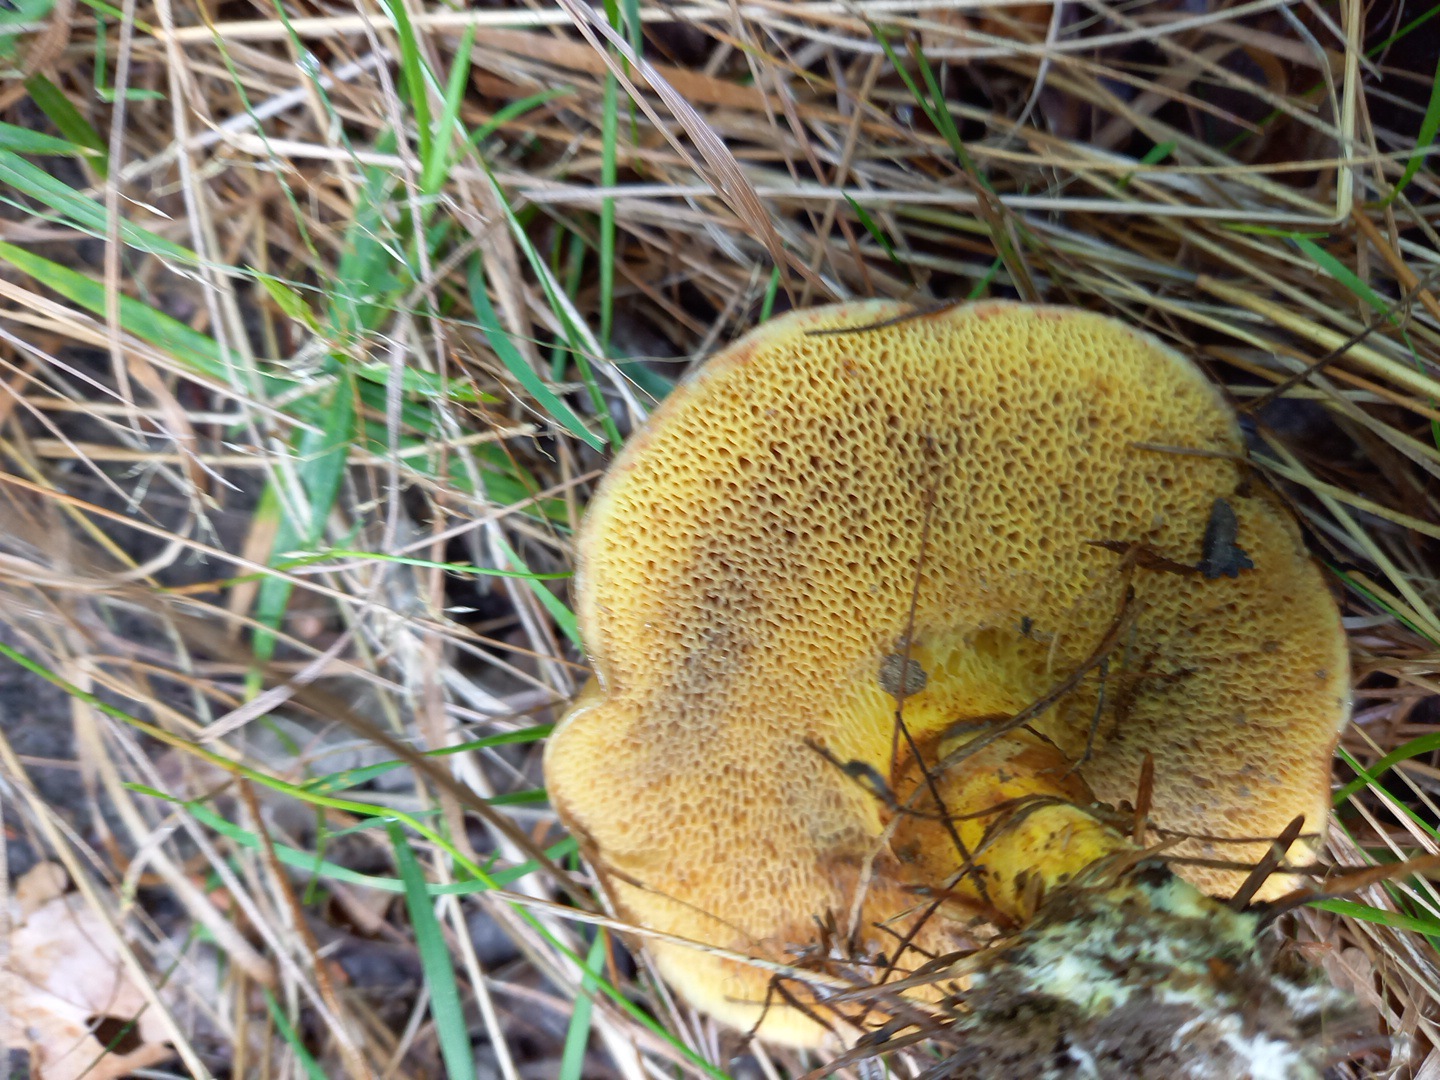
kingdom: Fungi
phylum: Basidiomycota
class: Agaricomycetes
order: Boletales
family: Suillaceae
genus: Suillus
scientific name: Suillus grevillei
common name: lærke-slimrørhat
